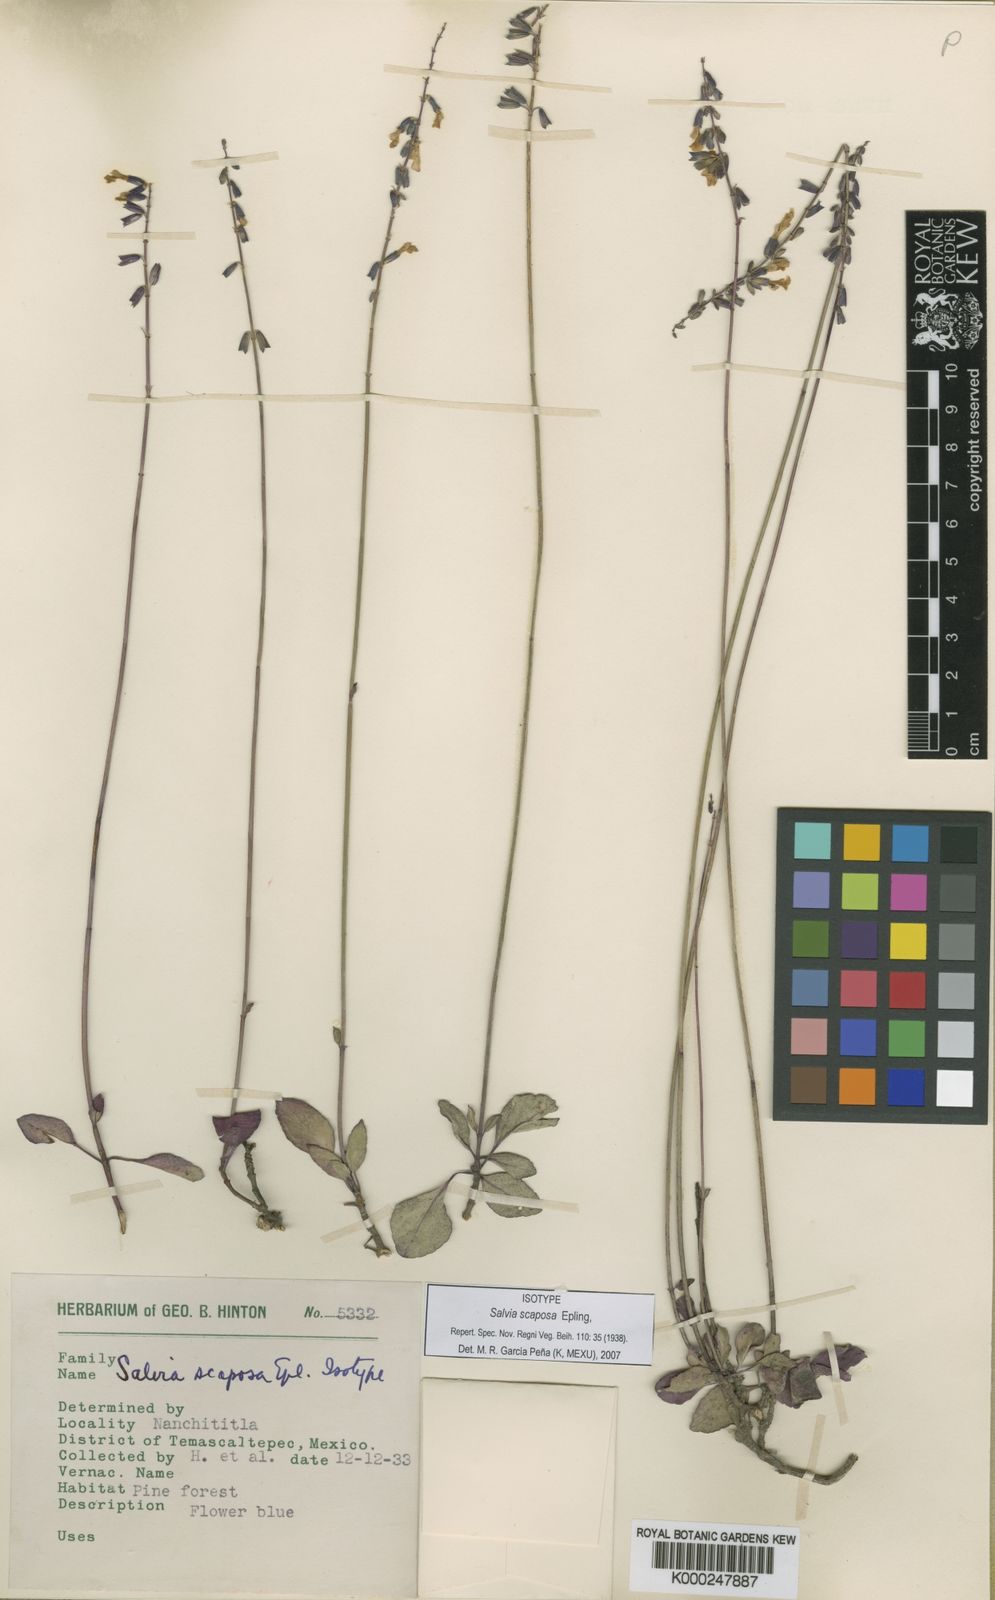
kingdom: Plantae
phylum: Tracheophyta
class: Magnoliopsida
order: Lamiales
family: Lamiaceae
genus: Salvia
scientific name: Salvia scaposa
